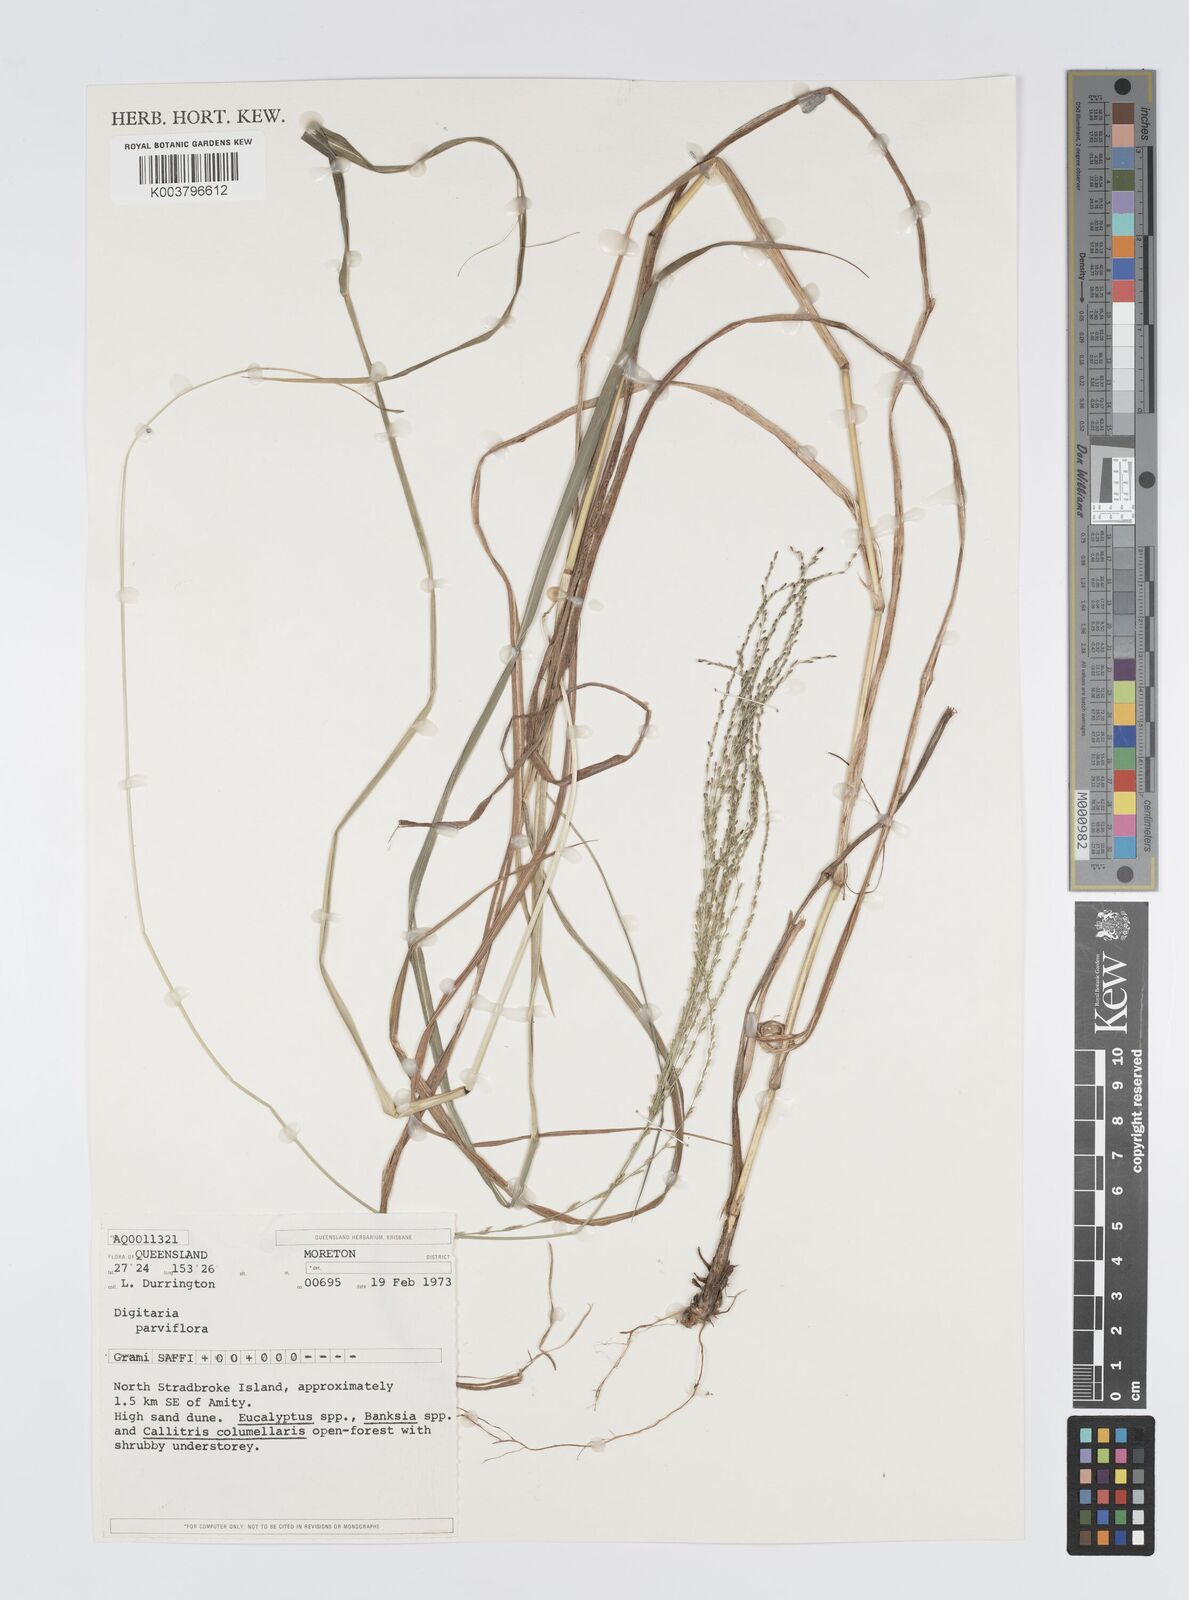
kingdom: Plantae
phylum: Tracheophyta
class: Liliopsida
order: Poales
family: Poaceae
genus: Digitaria
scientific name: Digitaria parviflora
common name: Small-flower finger grass
